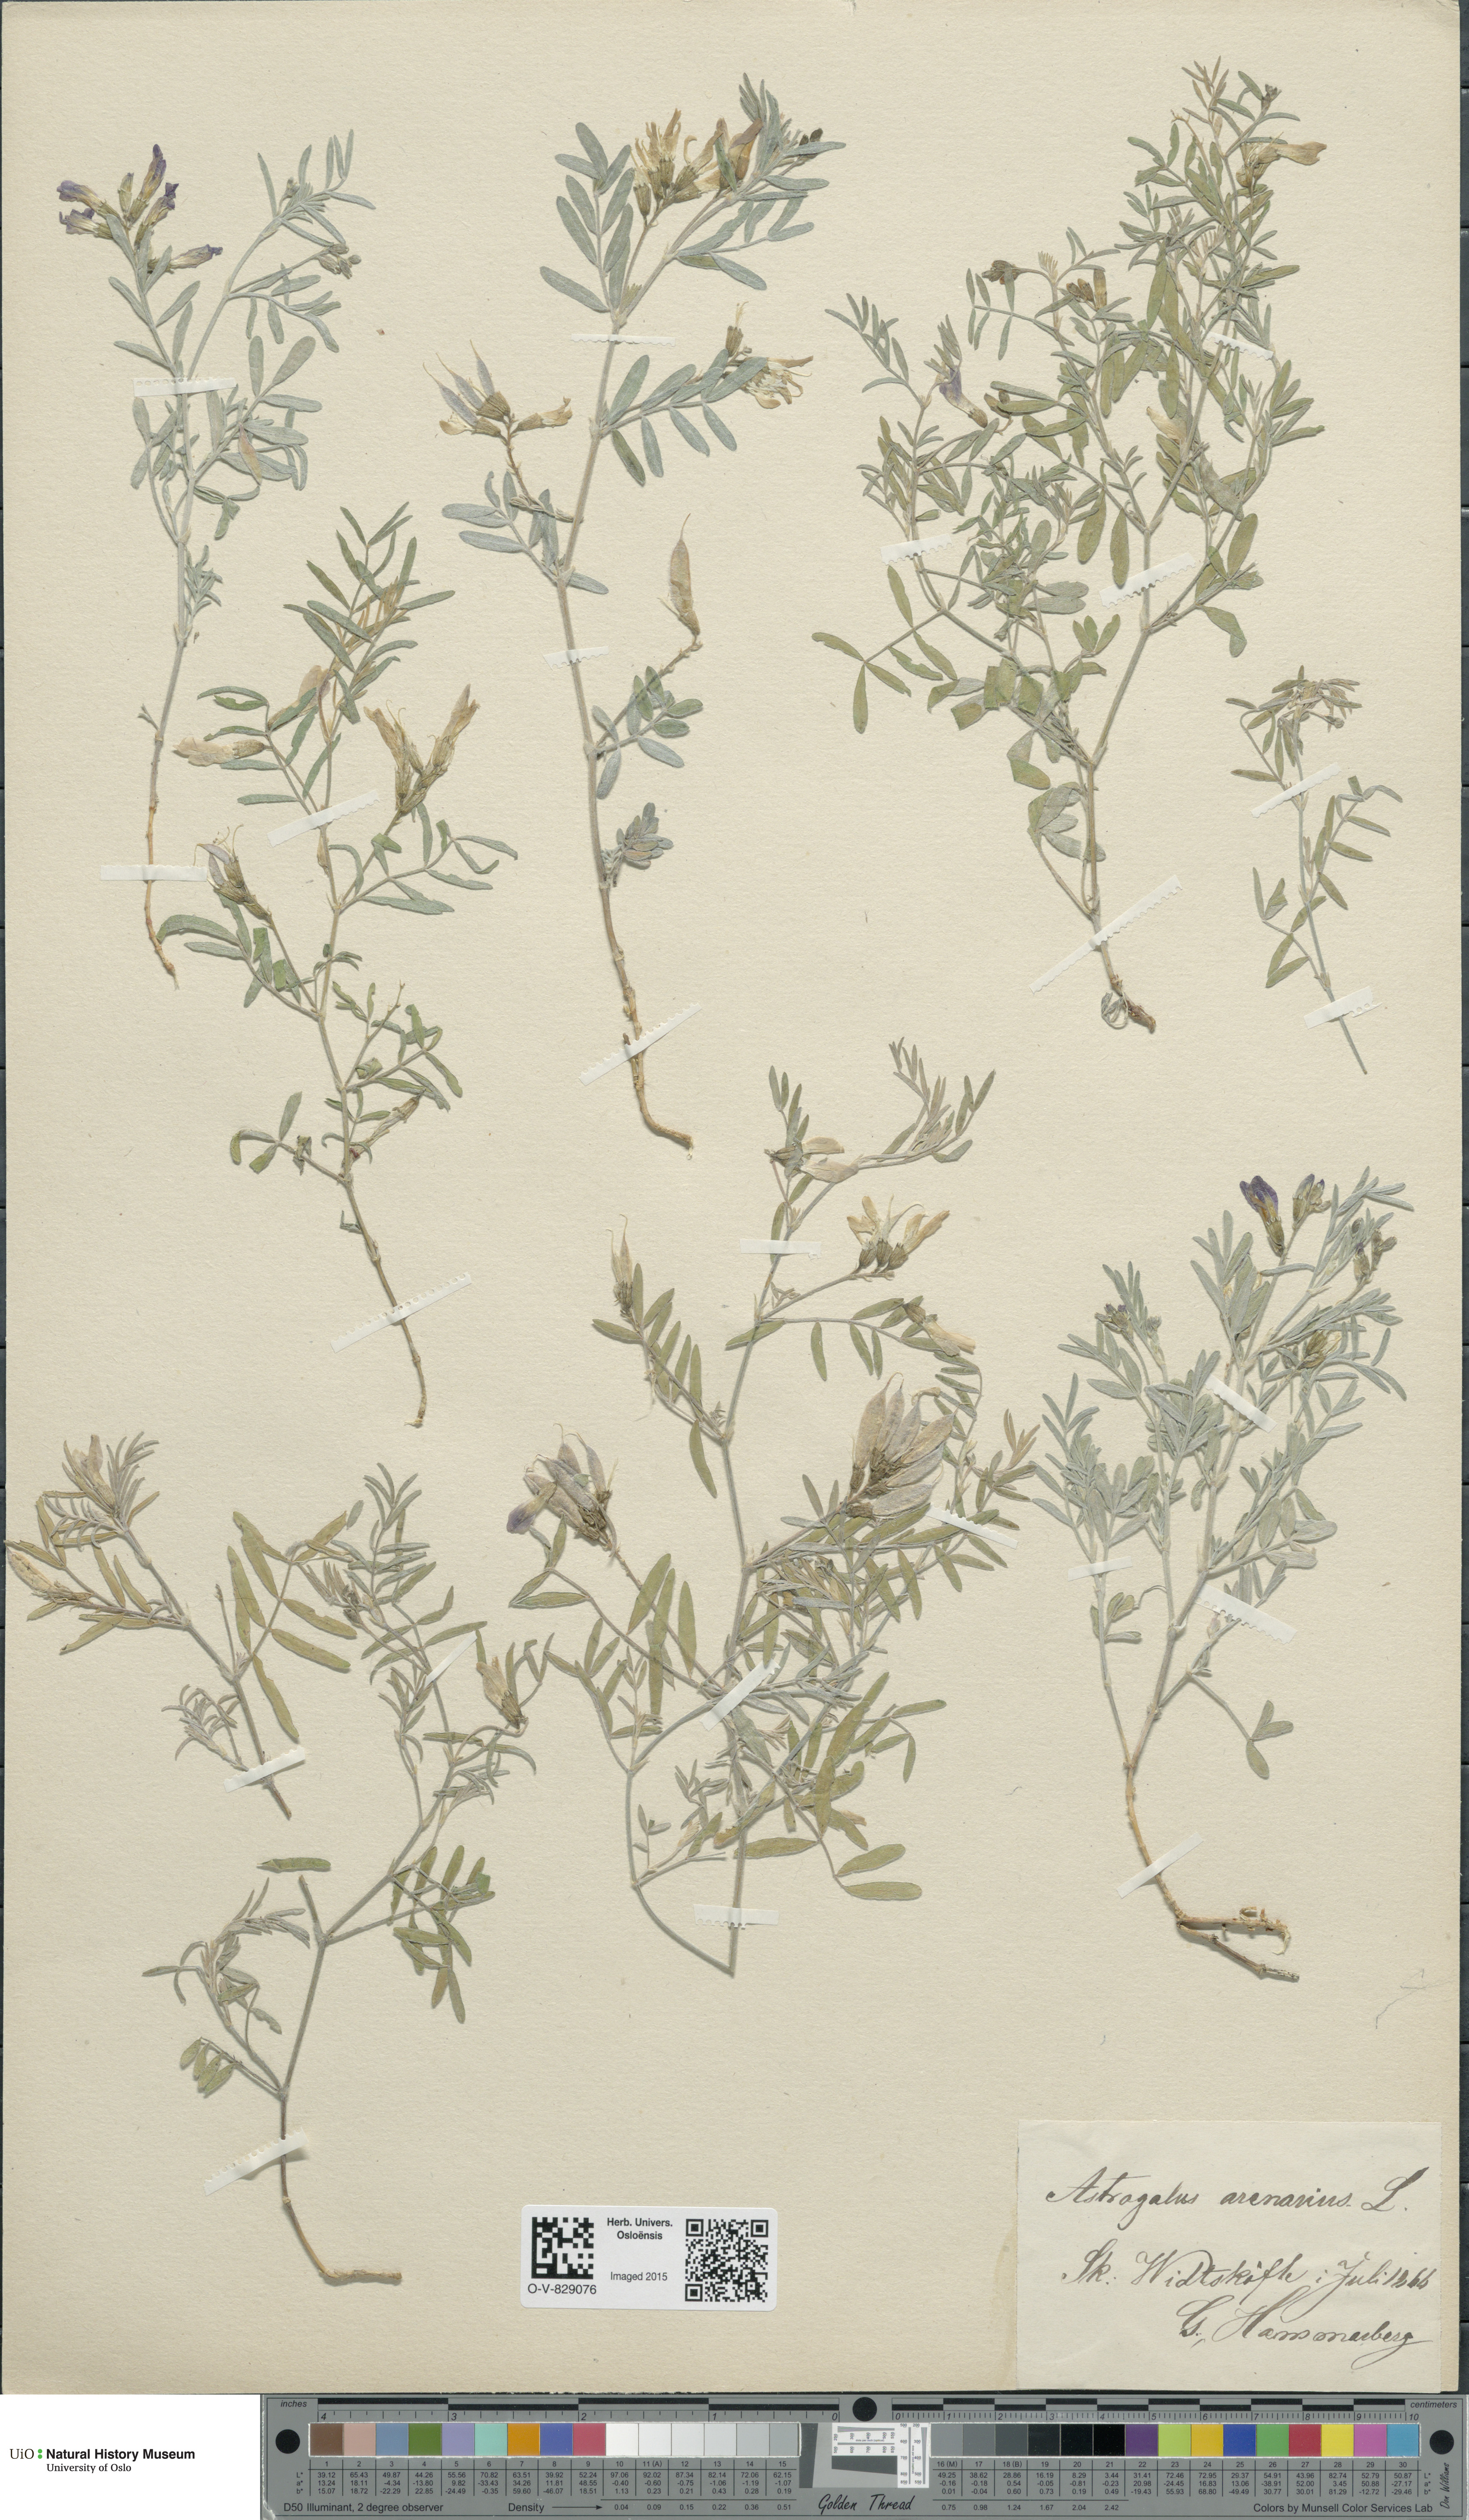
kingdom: Plantae
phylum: Tracheophyta
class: Magnoliopsida
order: Fabales
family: Fabaceae
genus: Astragalus
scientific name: Astragalus arenarius
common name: Arenarious milk-vetch
